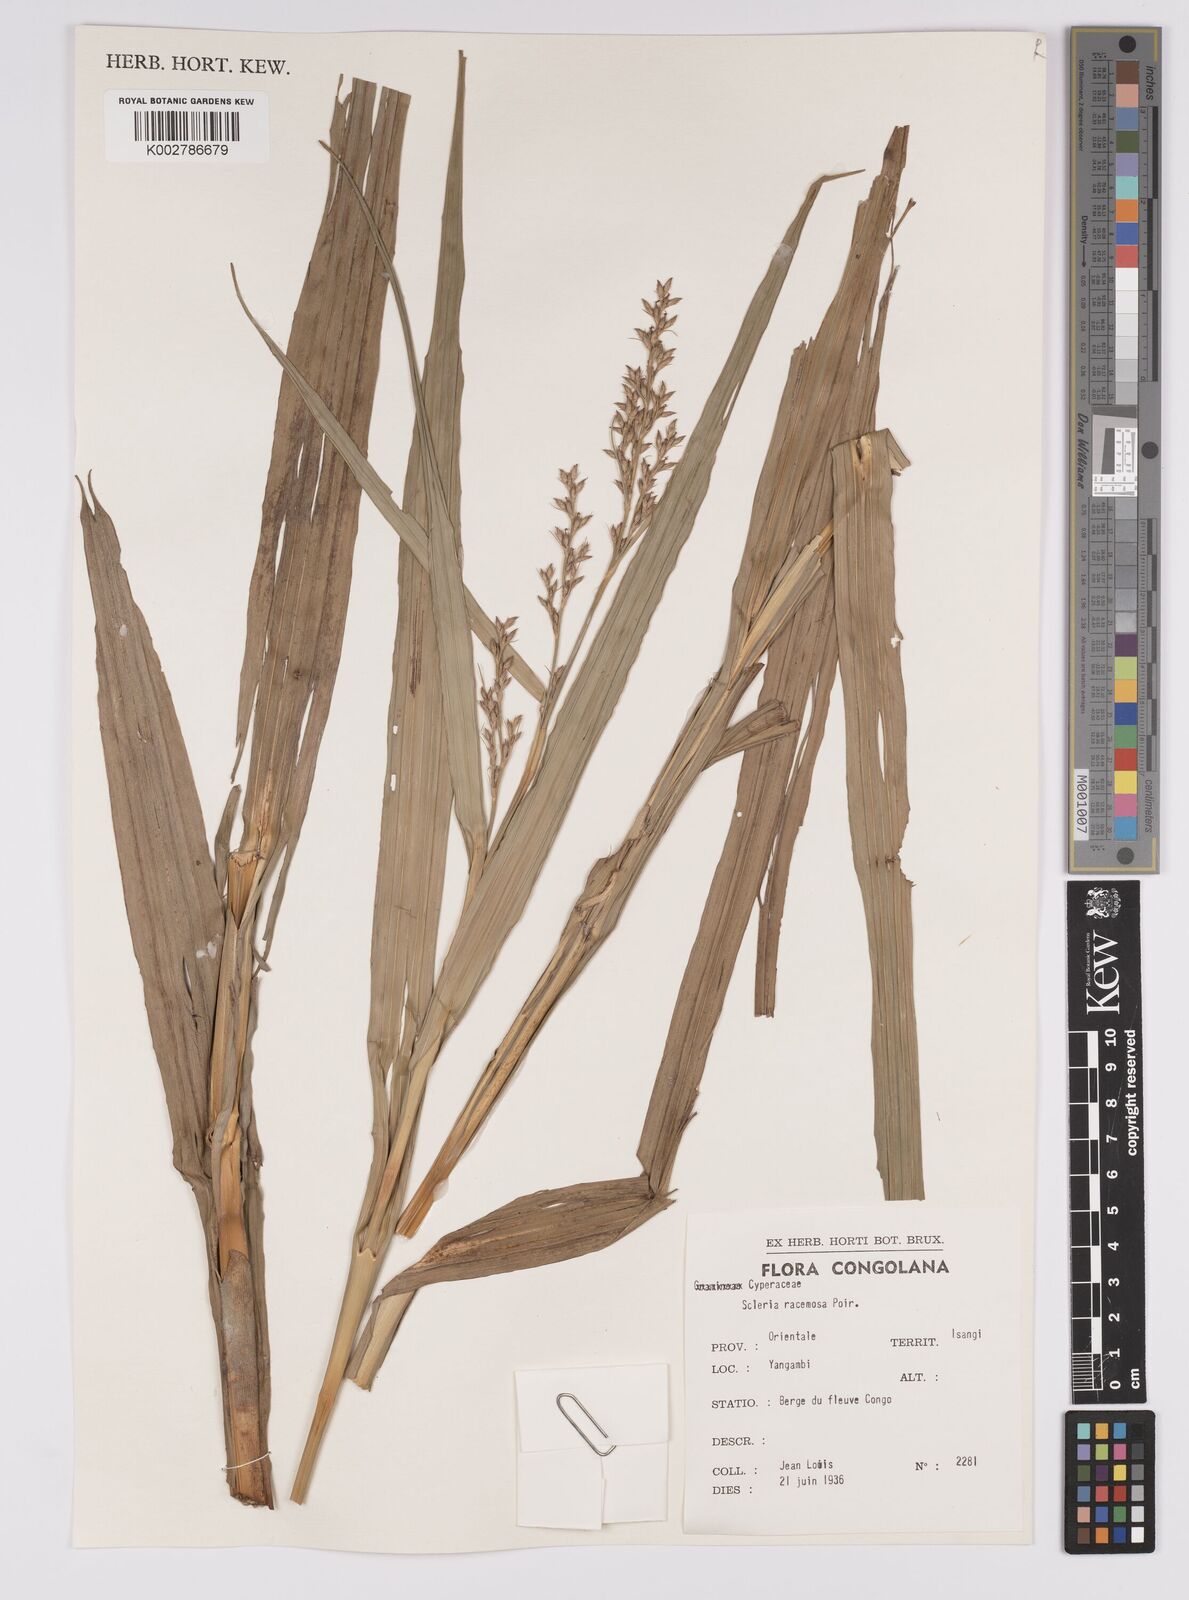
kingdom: Plantae
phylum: Tracheophyta
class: Liliopsida
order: Poales
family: Cyperaceae
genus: Scleria
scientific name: Scleria racemosa
